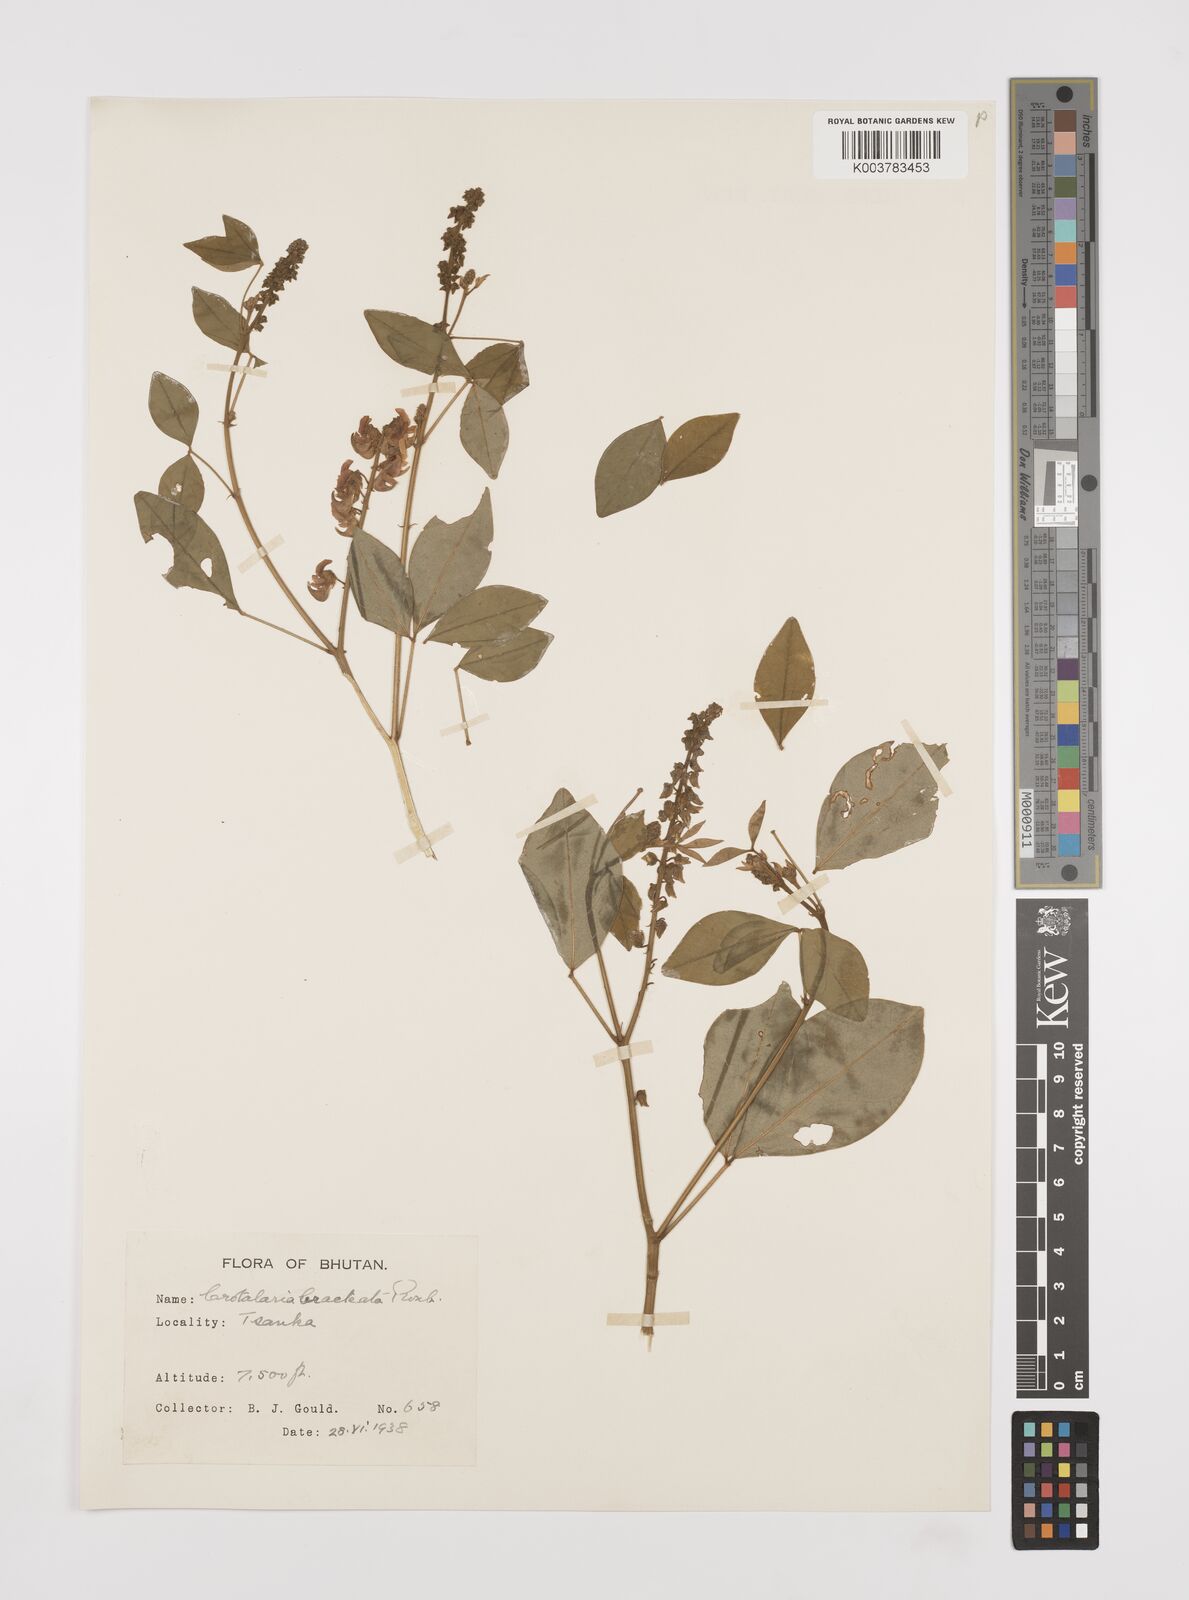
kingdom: Plantae
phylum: Tracheophyta
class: Magnoliopsida
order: Fabales
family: Fabaceae
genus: Crotalaria
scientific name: Crotalaria cytisoides
